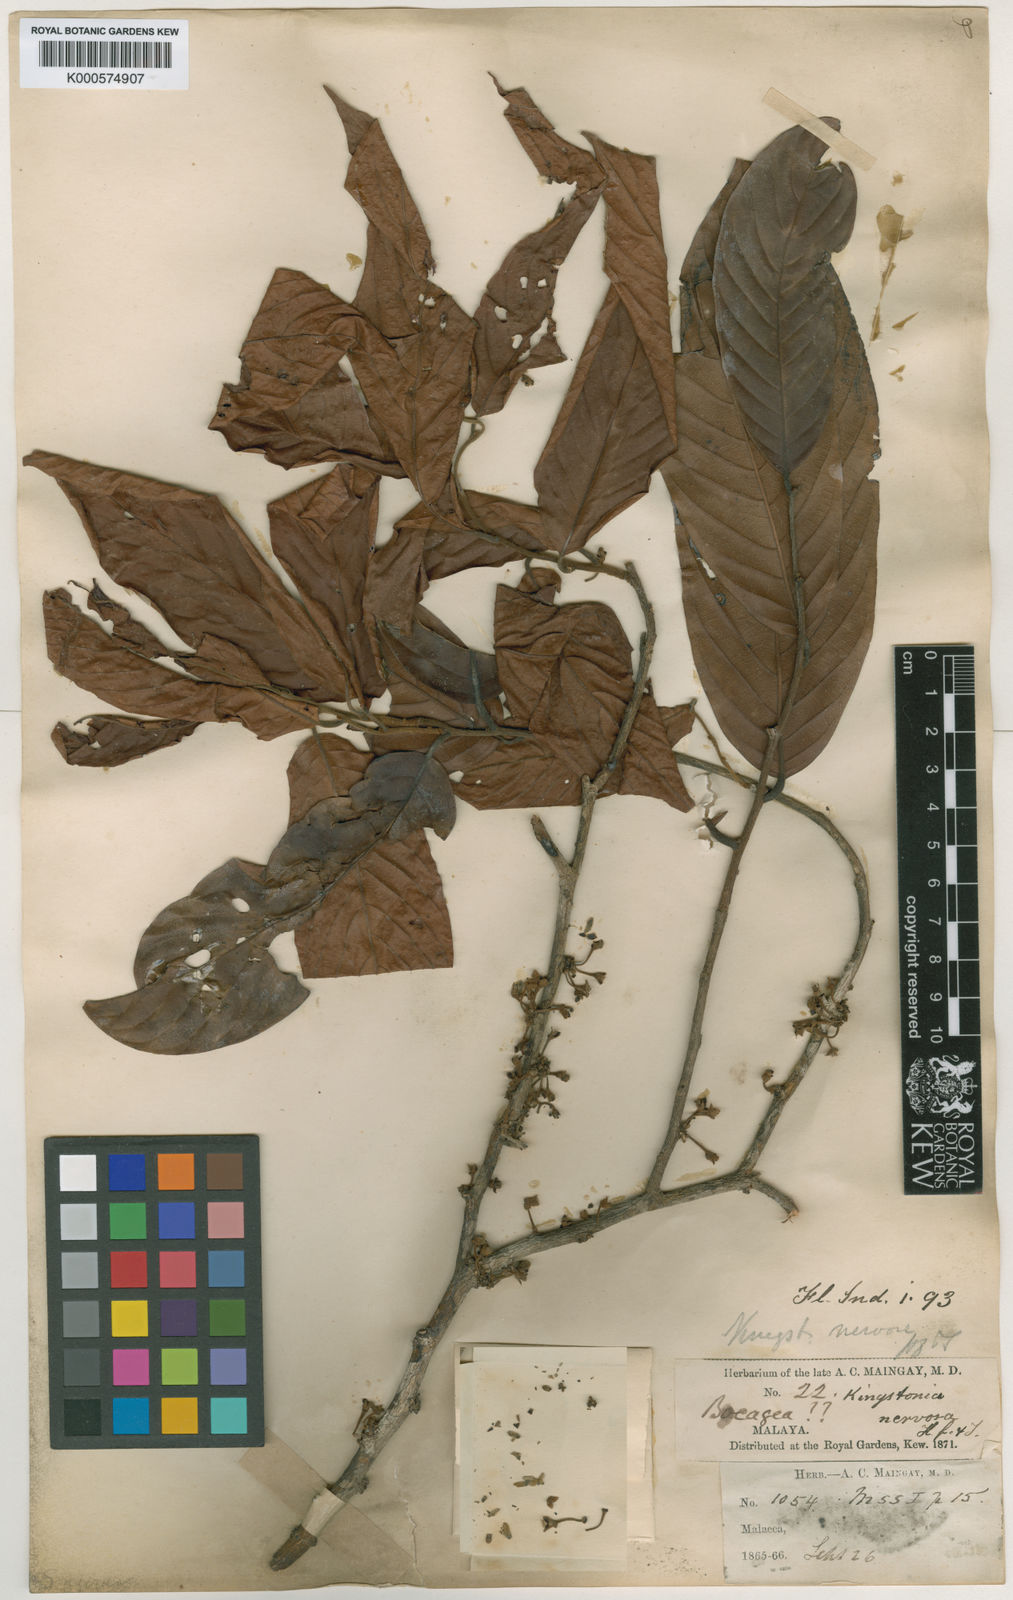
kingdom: Plantae
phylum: Tracheophyta
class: Magnoliopsida
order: Magnoliales
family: Annonaceae
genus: Dendrokingstonia
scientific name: Dendrokingstonia nervosa
